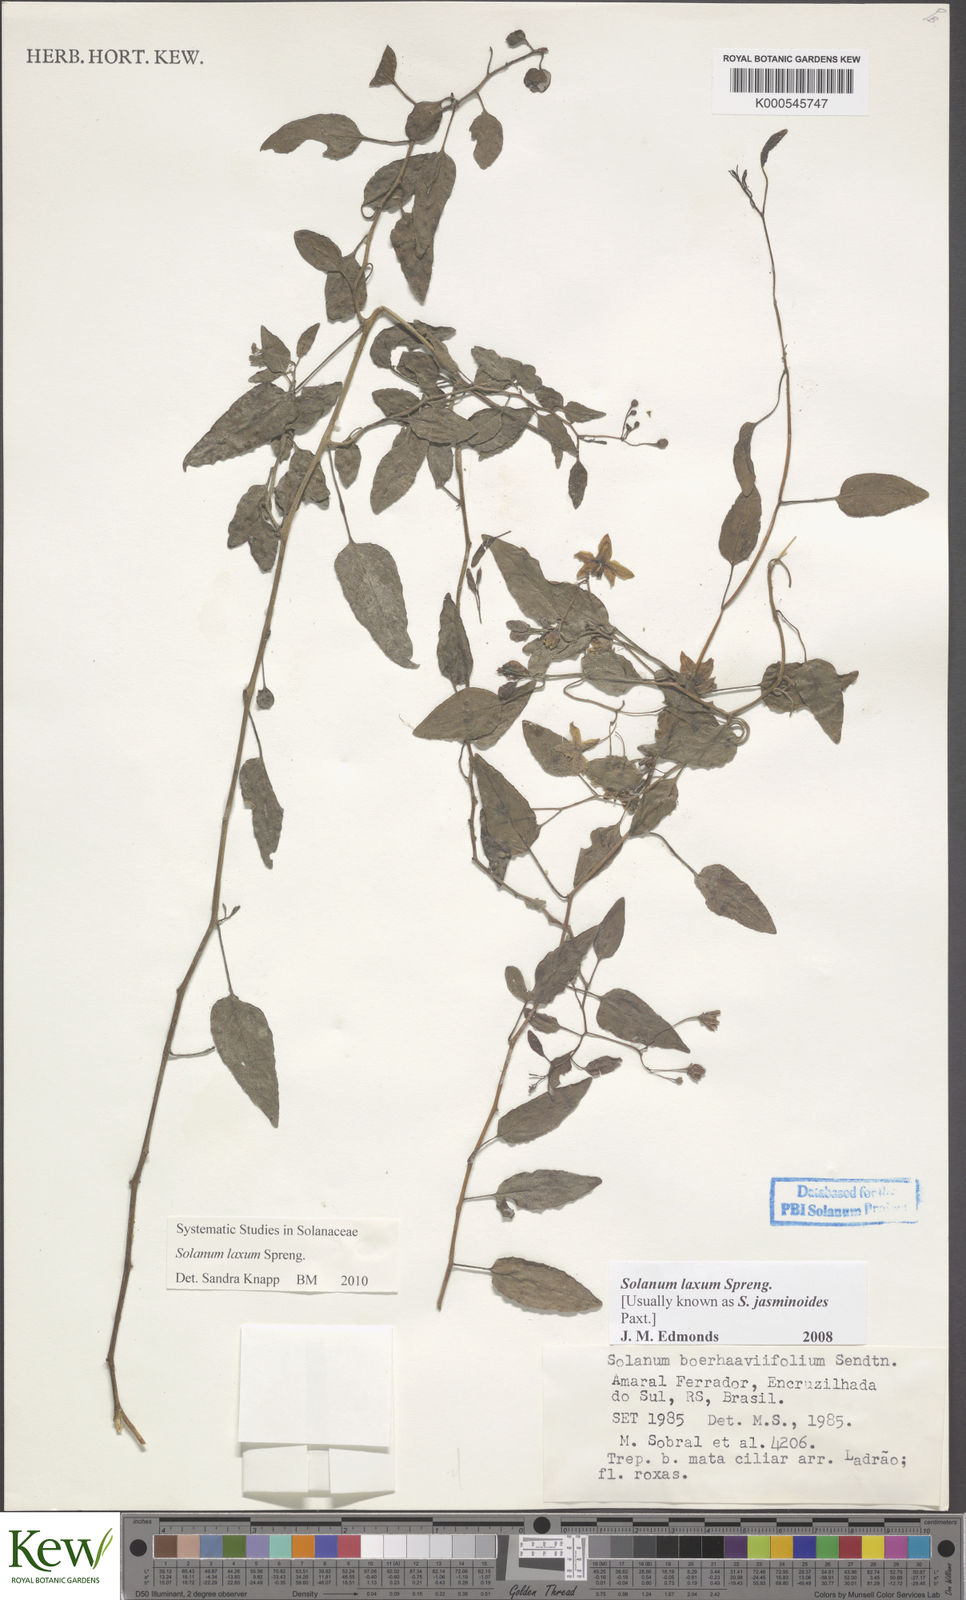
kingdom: Plantae
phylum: Tracheophyta
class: Magnoliopsida
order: Solanales
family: Solanaceae
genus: Solanum
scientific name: Solanum laxum
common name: Nightshade
